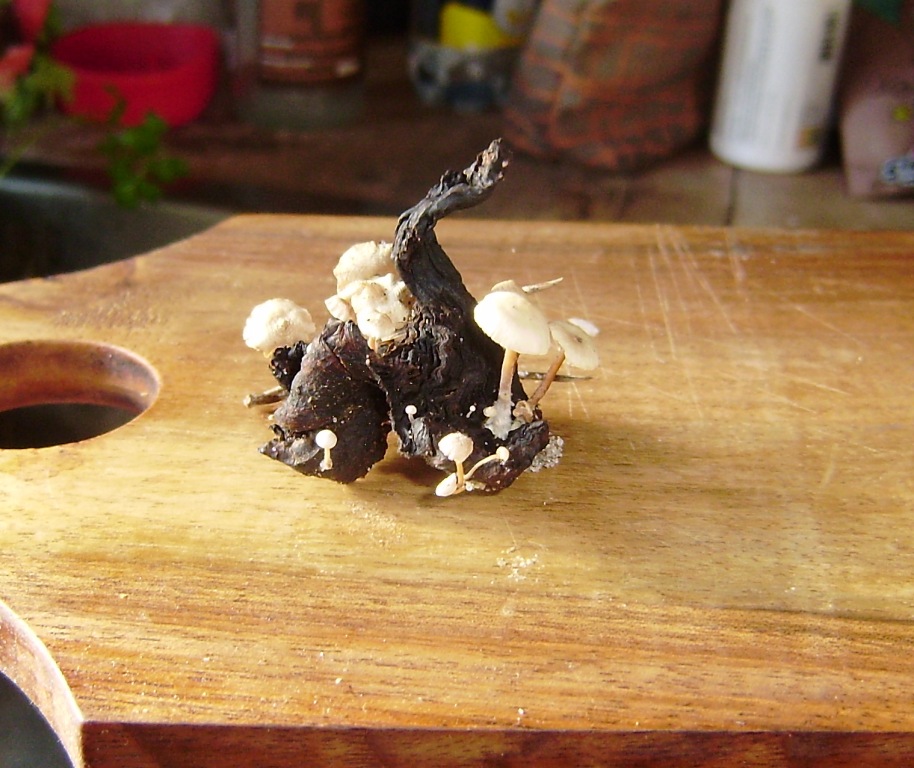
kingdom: Fungi
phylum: Basidiomycota
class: Agaricomycetes
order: Agaricales
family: Tricholomataceae
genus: Collybia
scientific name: Collybia cirrhata
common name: silke-lighat
